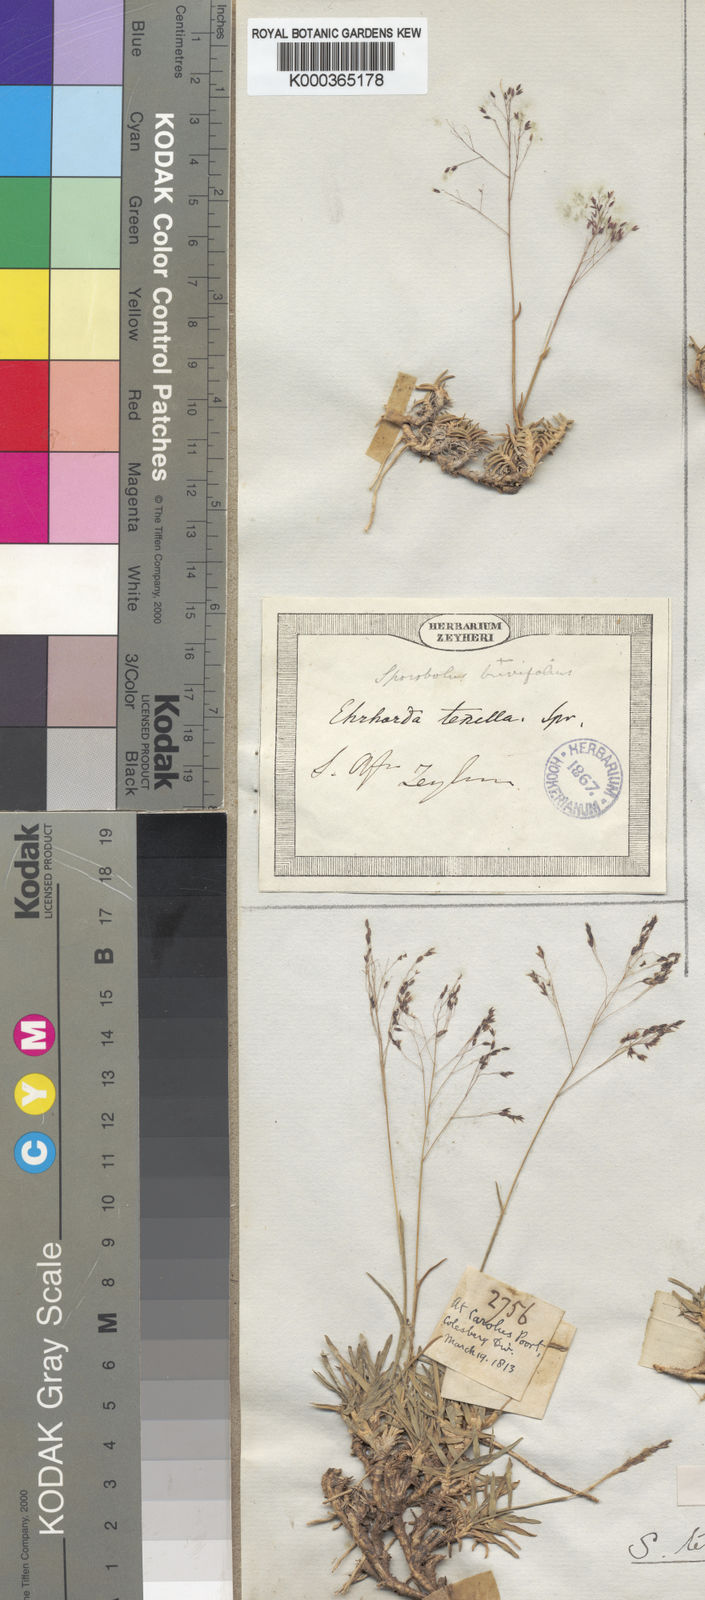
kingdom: Plantae
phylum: Tracheophyta
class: Liliopsida
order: Poales
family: Poaceae
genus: Sporobolus
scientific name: Sporobolus tenellus
